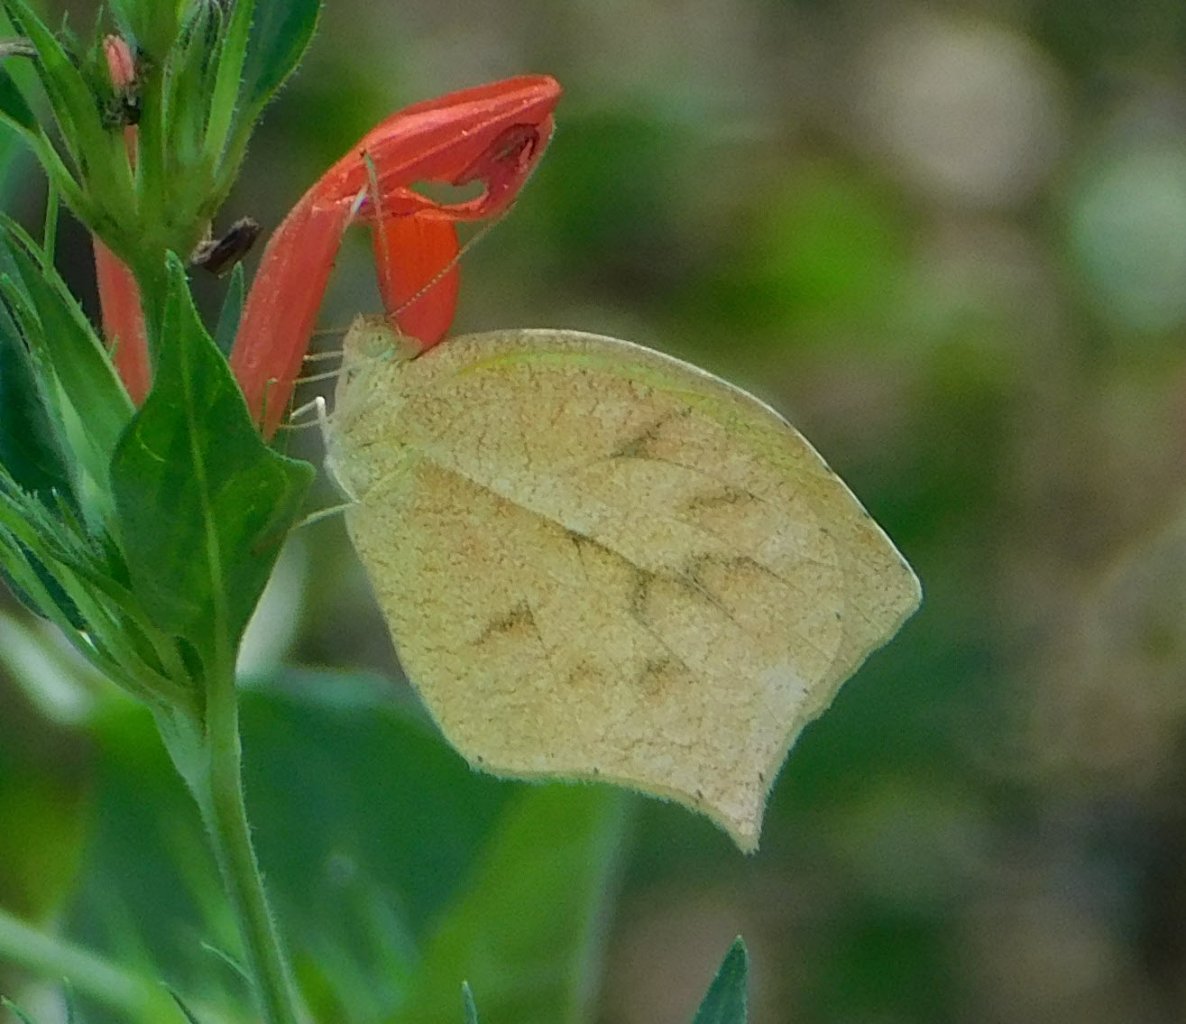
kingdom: Animalia
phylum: Arthropoda
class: Insecta
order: Lepidoptera
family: Pieridae
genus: Eurema
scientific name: Eurema mexicana
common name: Mexican Yellow
